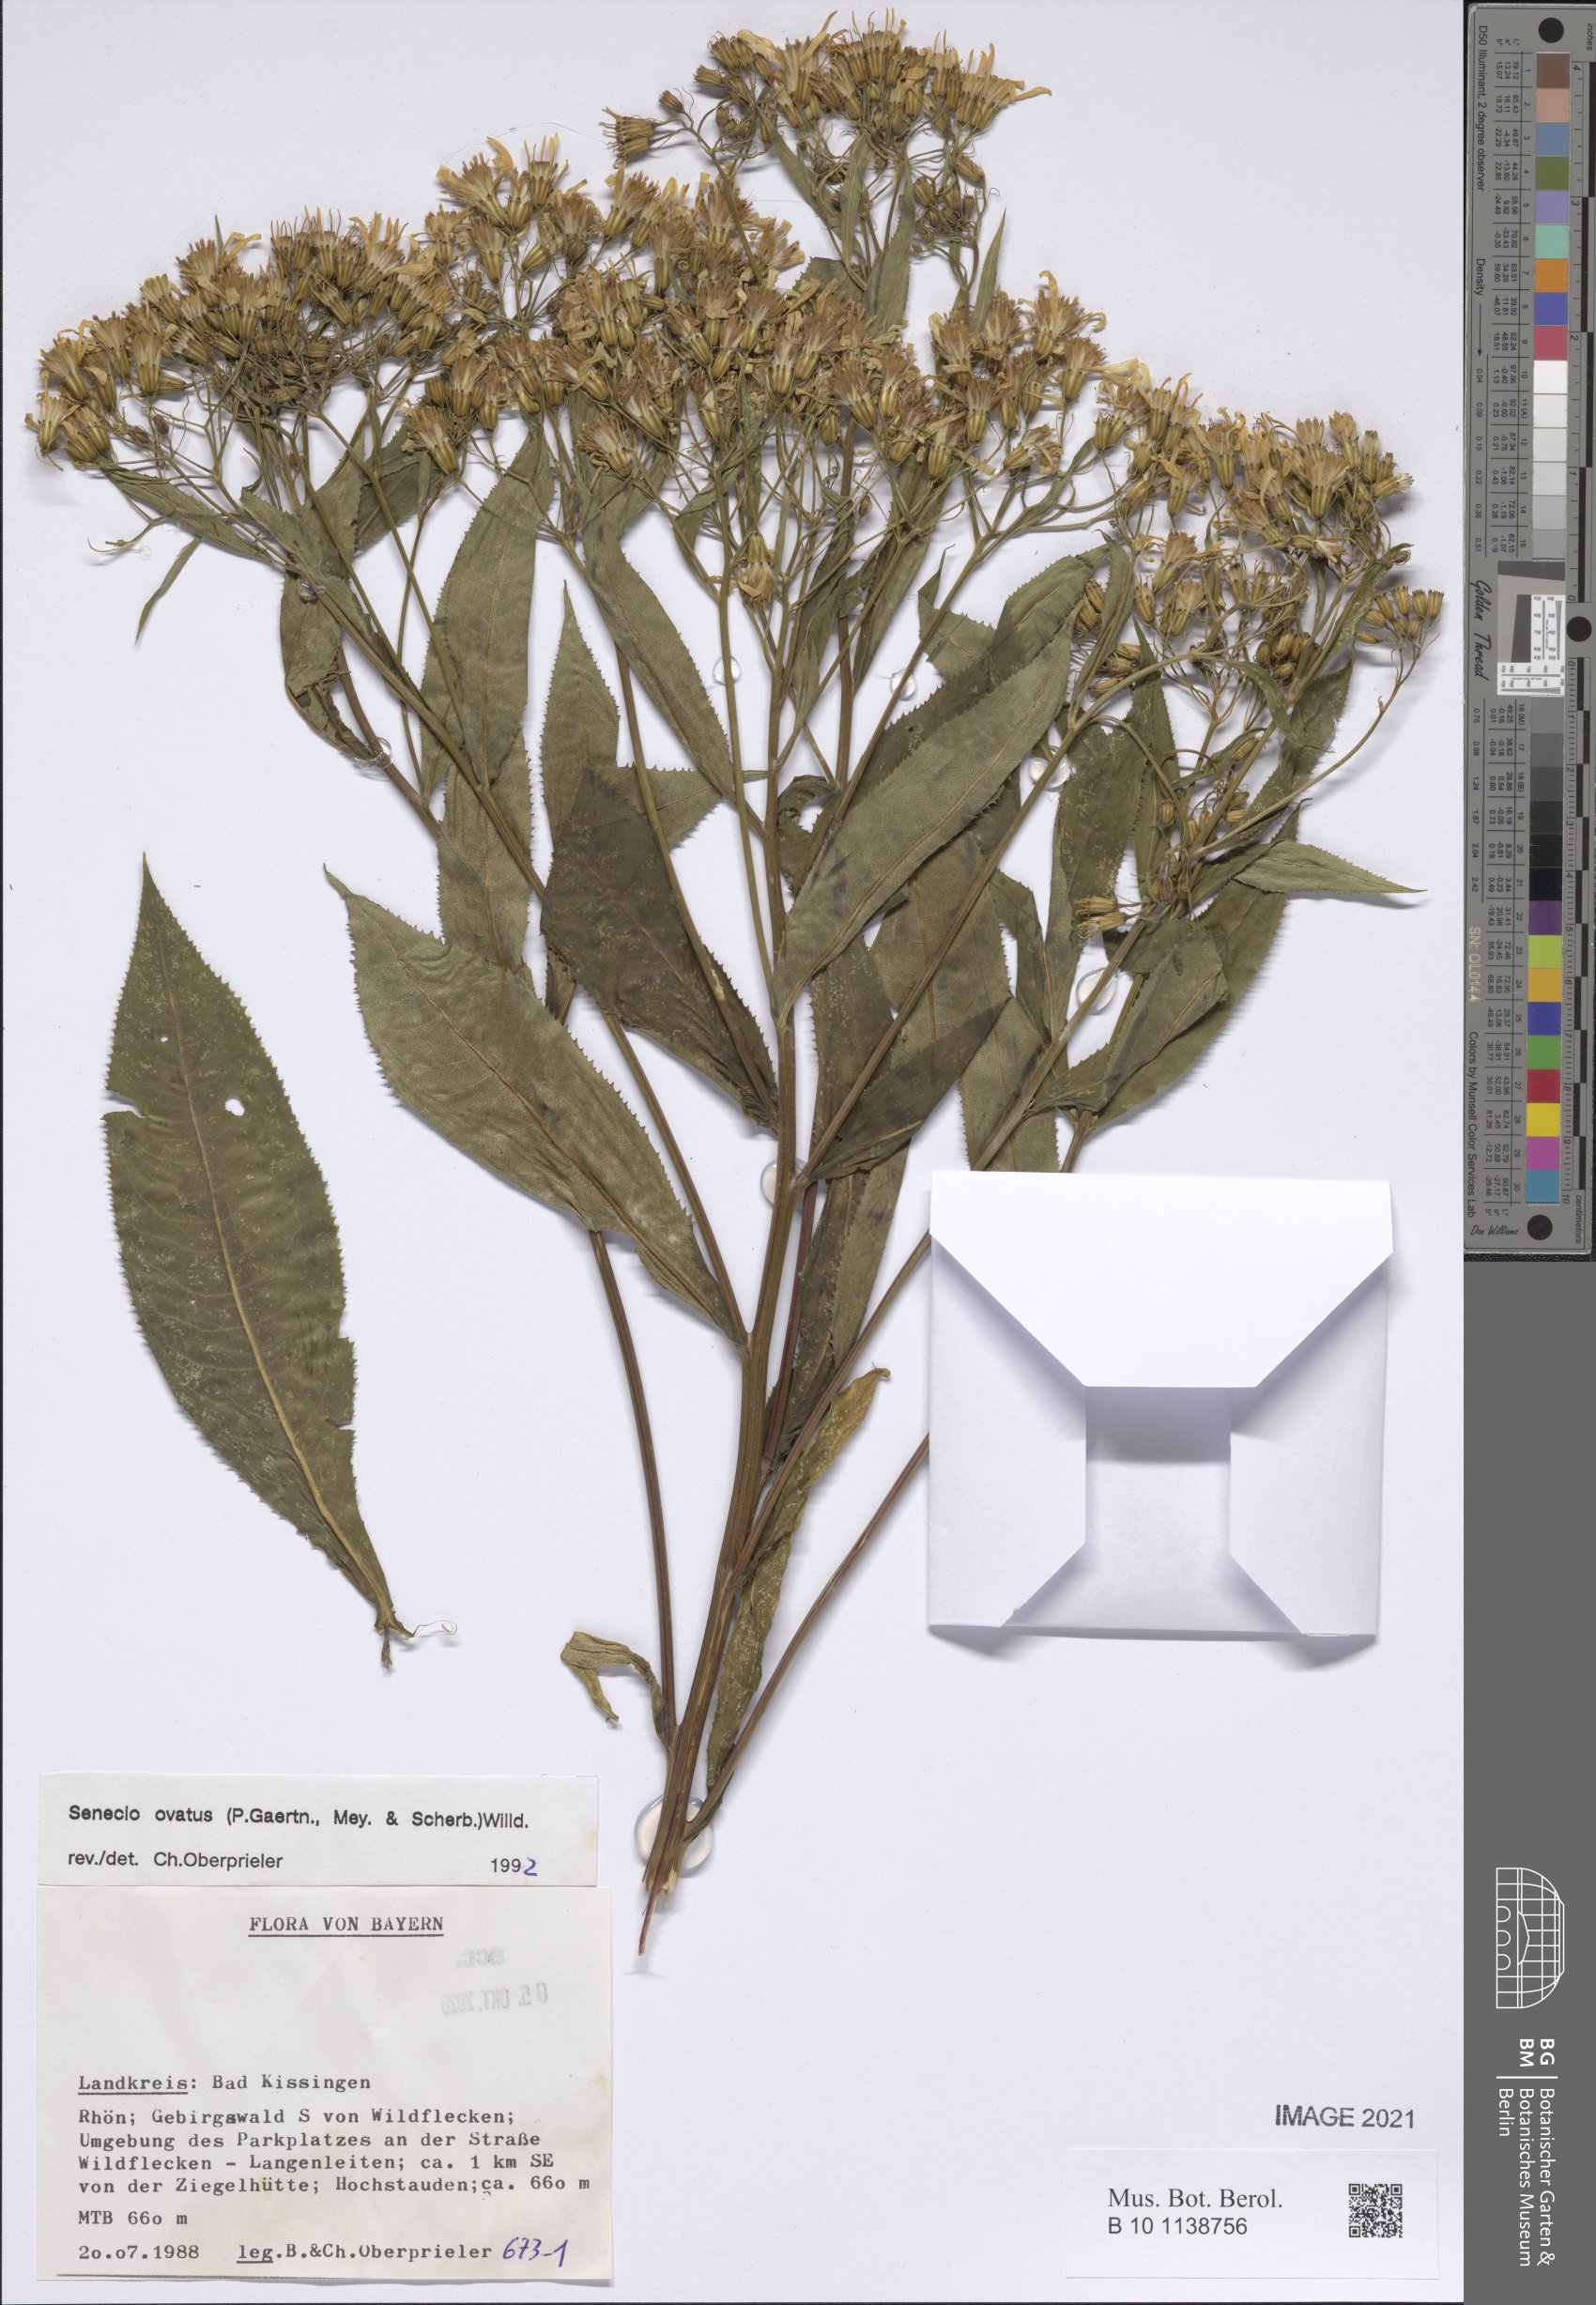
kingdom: Plantae
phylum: Tracheophyta
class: Magnoliopsida
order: Asterales
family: Asteraceae
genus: Senecio
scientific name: Senecio ovatus
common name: Wood ragwort
